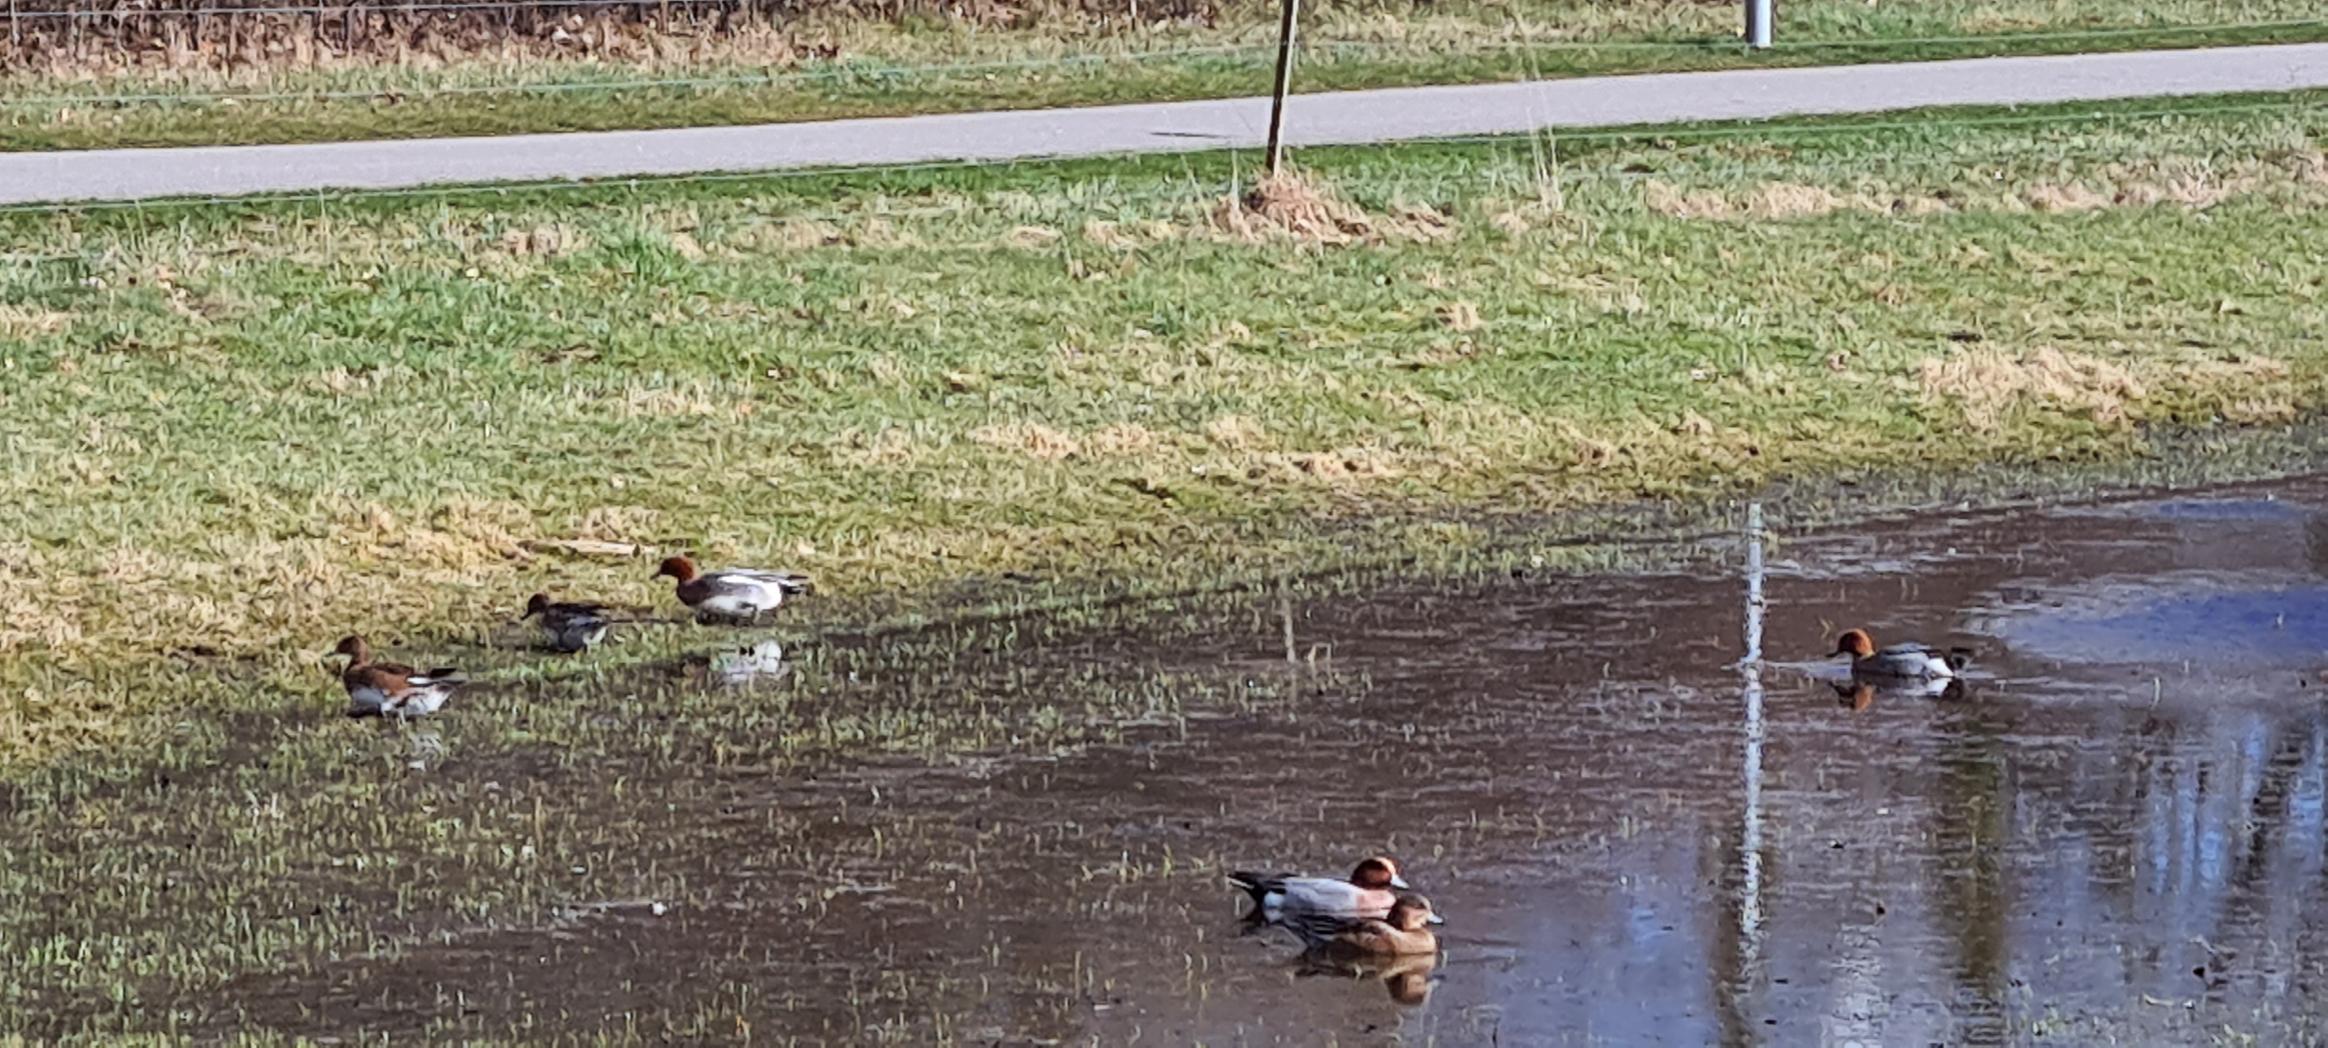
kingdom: Animalia
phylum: Chordata
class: Aves
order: Anseriformes
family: Anatidae
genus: Mareca
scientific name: Mareca penelope
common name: Pibeand
